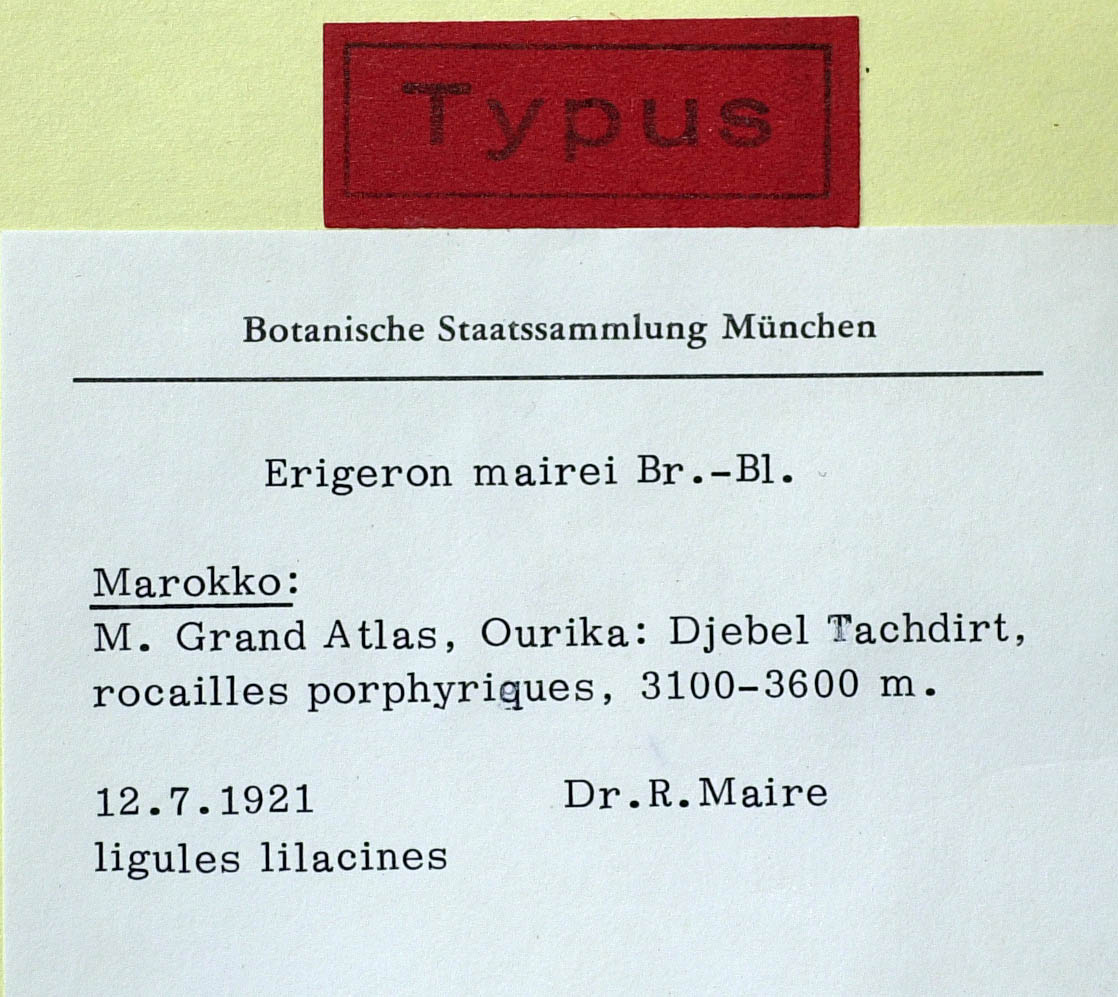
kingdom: Plantae
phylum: Tracheophyta
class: Magnoliopsida
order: Asterales
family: Asteraceae
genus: Erigeron
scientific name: Erigeron granatensis
